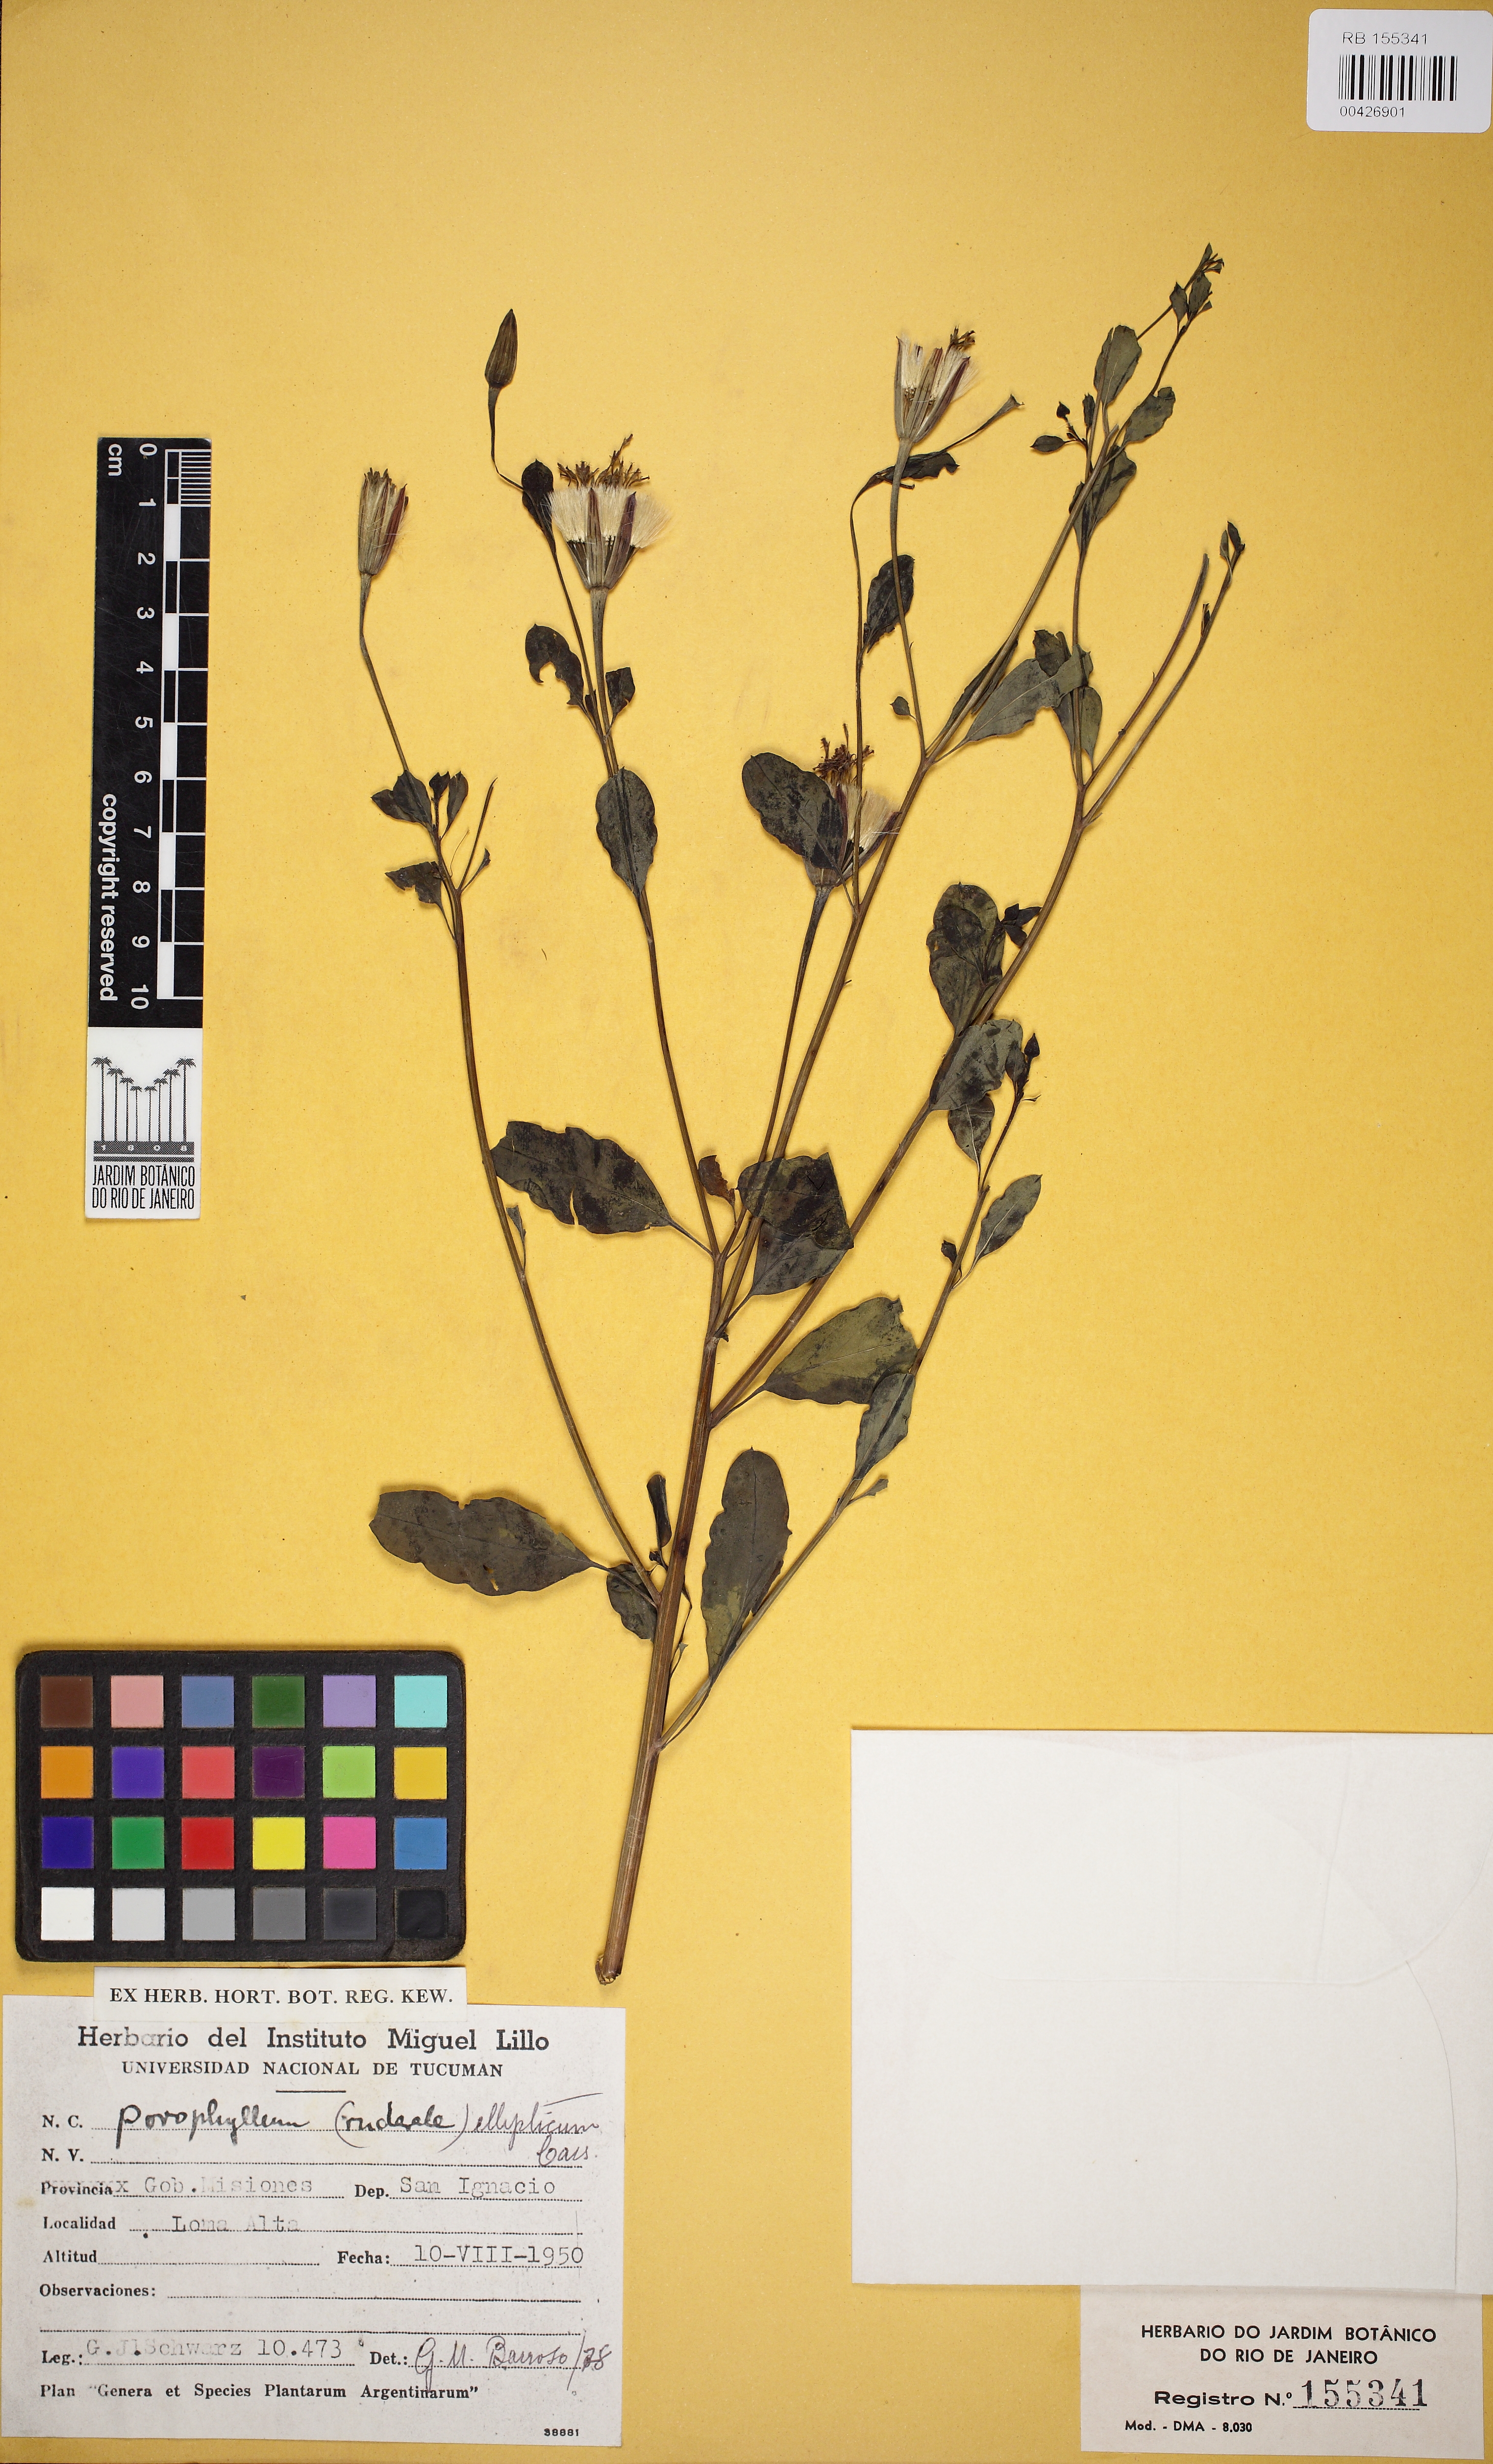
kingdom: Plantae
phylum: Tracheophyta
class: Magnoliopsida
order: Asterales
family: Asteraceae
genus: Porophyllum
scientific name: Porophyllum ruderale
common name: Yerba porosa
